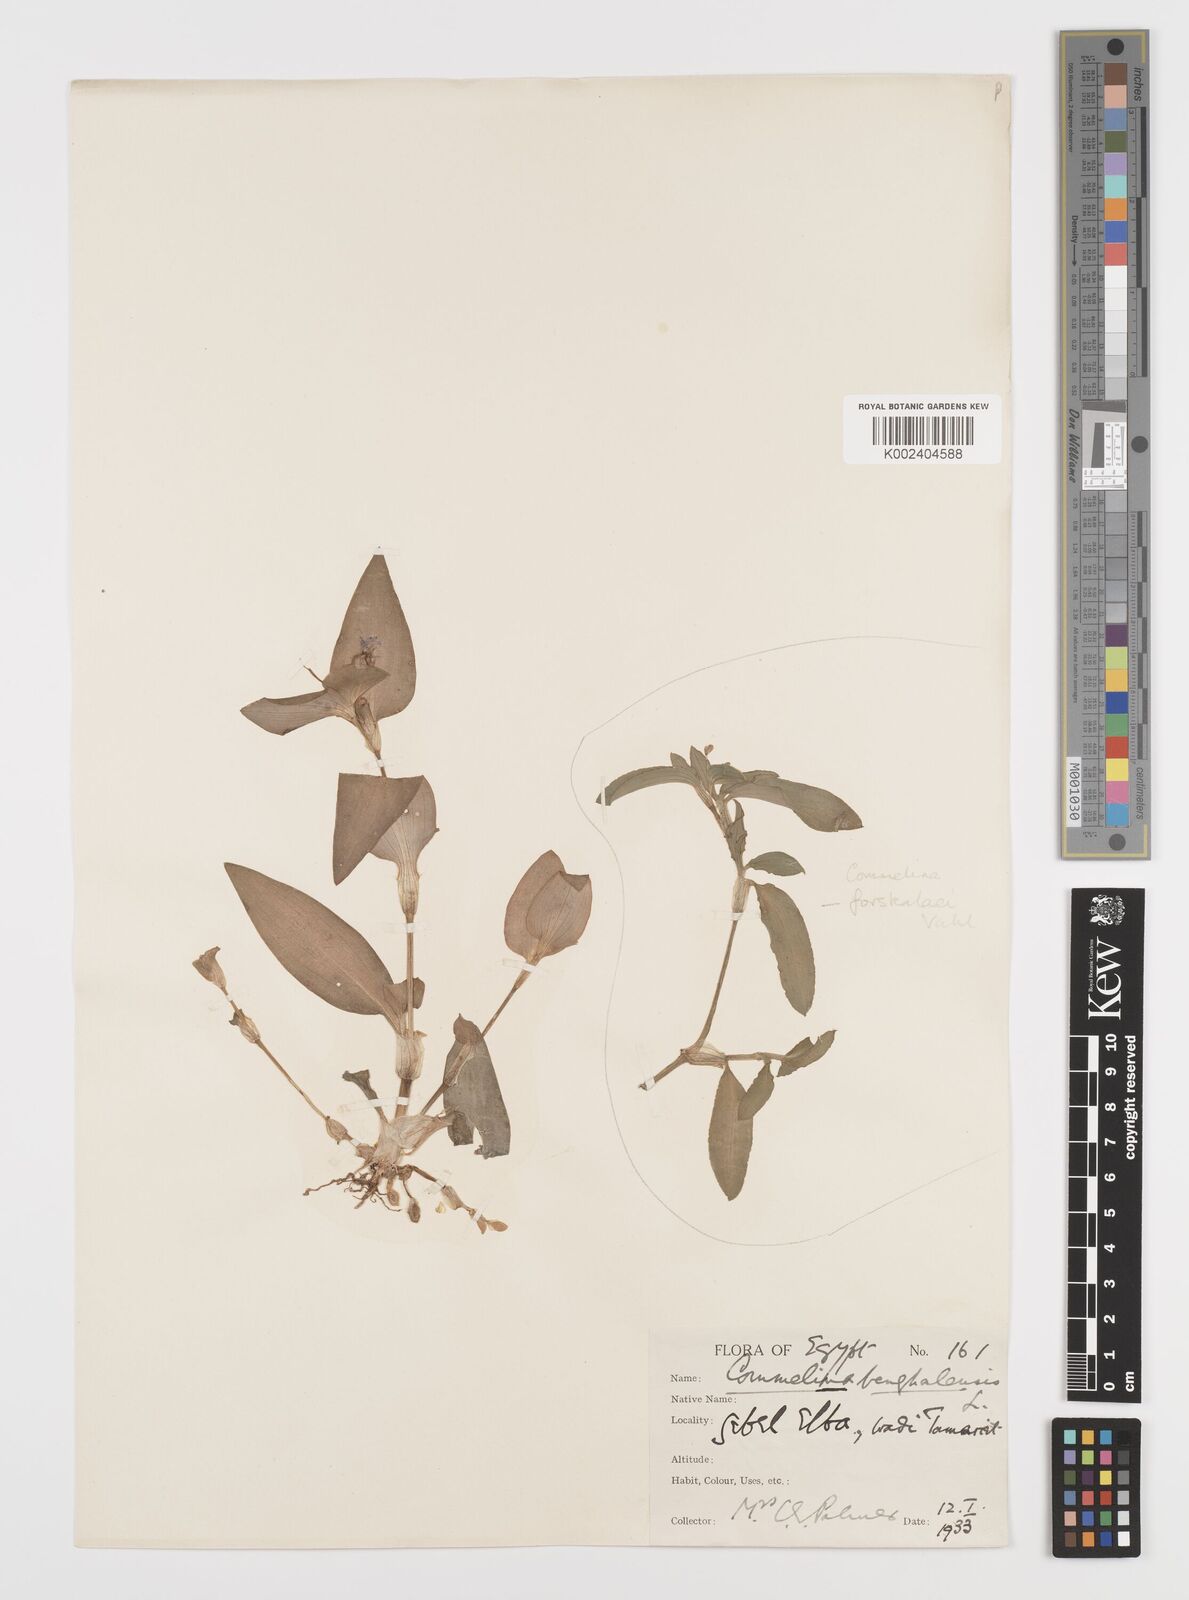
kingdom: Plantae
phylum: Tracheophyta
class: Liliopsida
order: Commelinales
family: Commelinaceae
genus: Commelina
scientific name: Commelina benghalensis
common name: Jio
